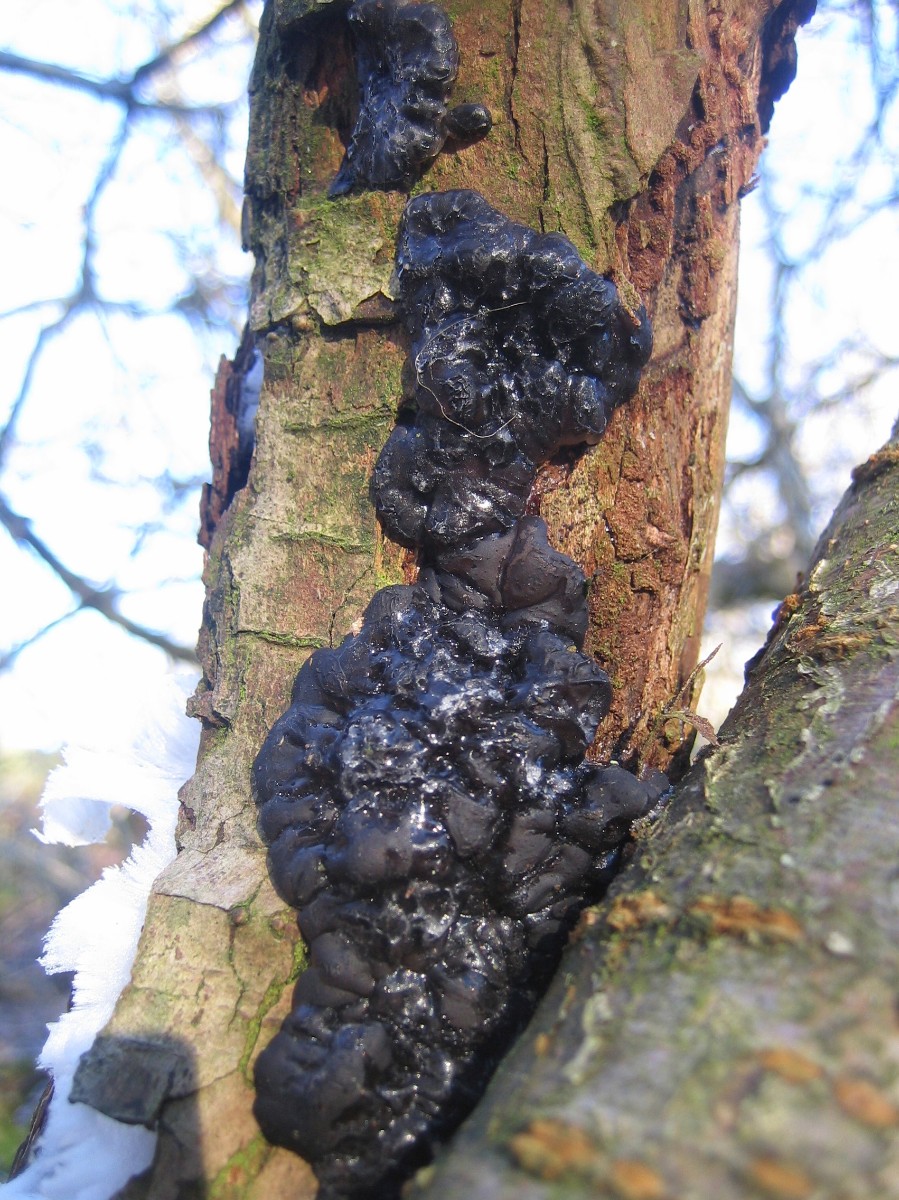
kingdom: Fungi
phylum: Basidiomycota
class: Agaricomycetes
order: Auriculariales
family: Auriculariaceae
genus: Exidia
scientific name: Exidia glandulosa
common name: ege-bævretop
